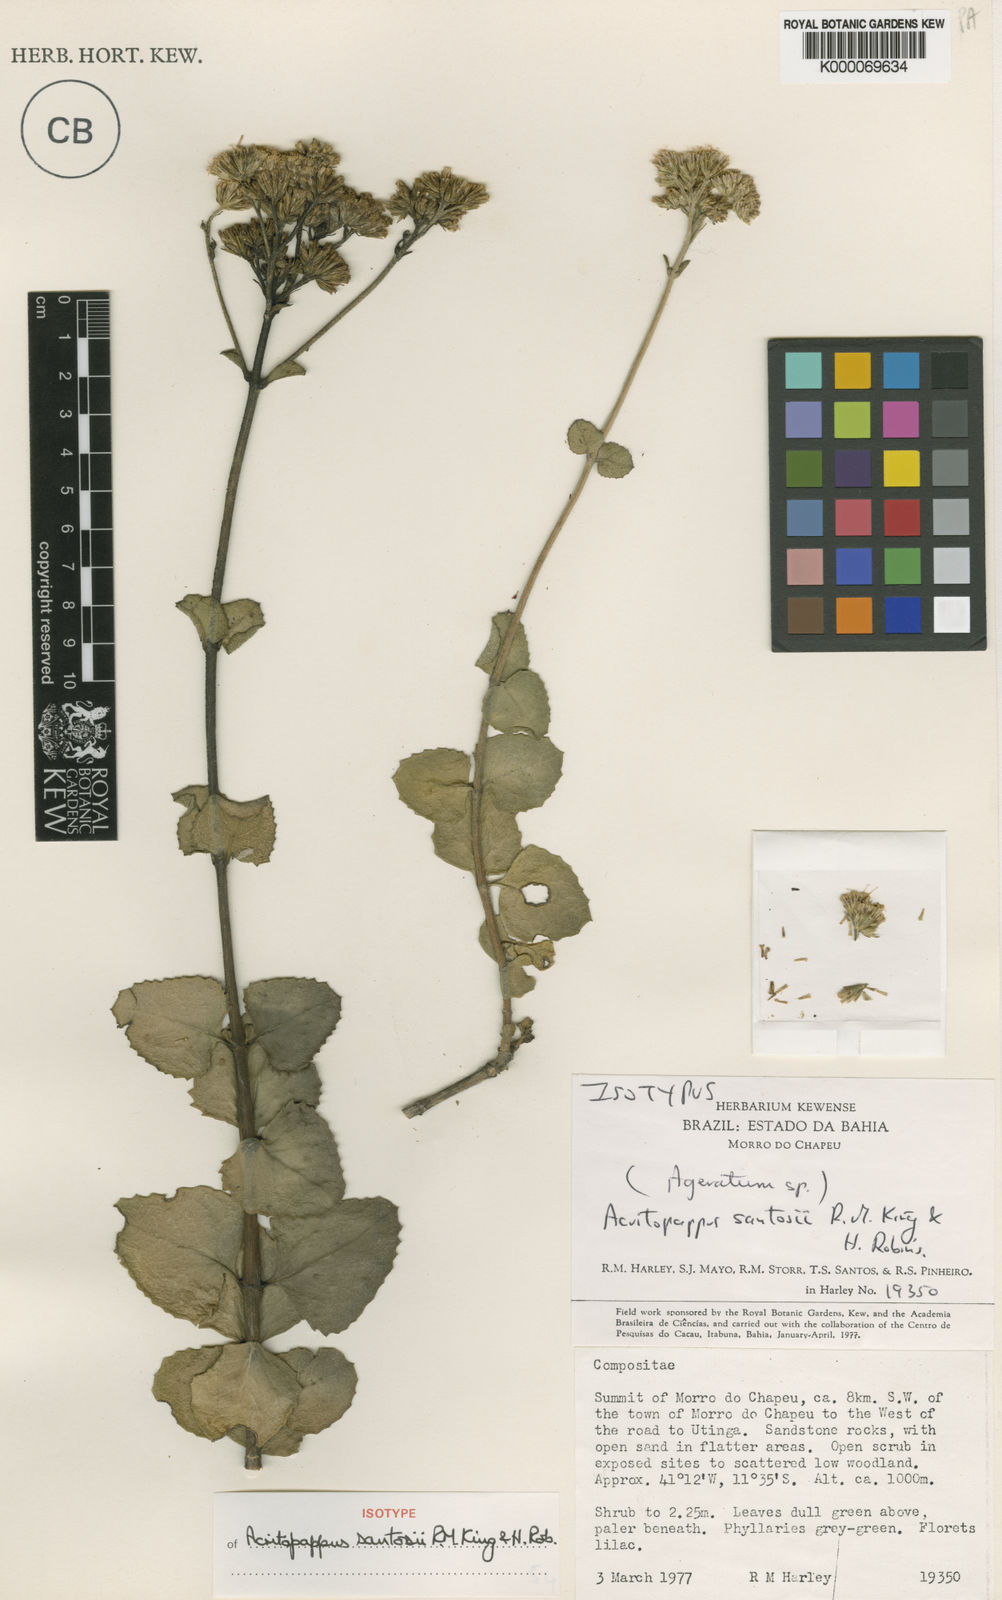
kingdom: Plantae
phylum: Tracheophyta
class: Magnoliopsida
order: Asterales
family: Asteraceae
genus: Acritopappus
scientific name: Acritopappus santosii
